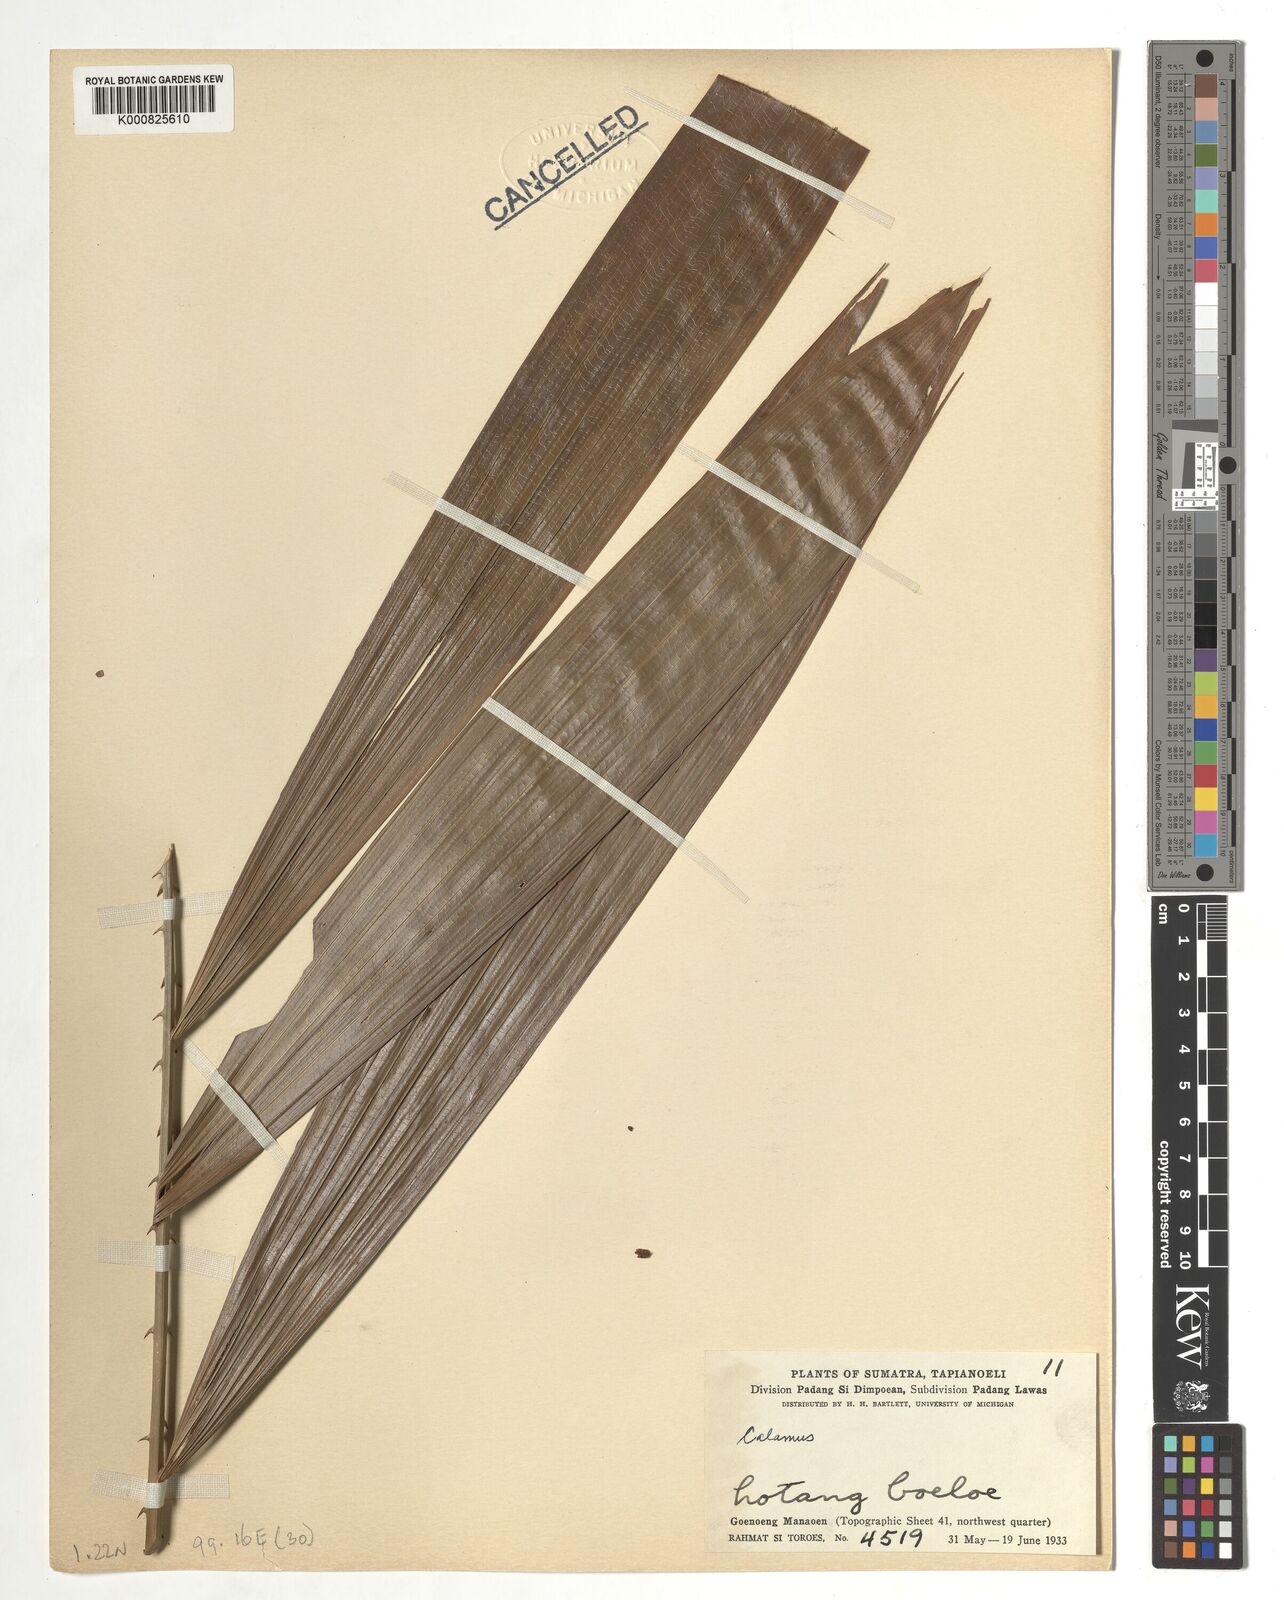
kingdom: Plantae
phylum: Tracheophyta
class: Liliopsida
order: Arecales
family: Arecaceae
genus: Calamus
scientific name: Calamus
